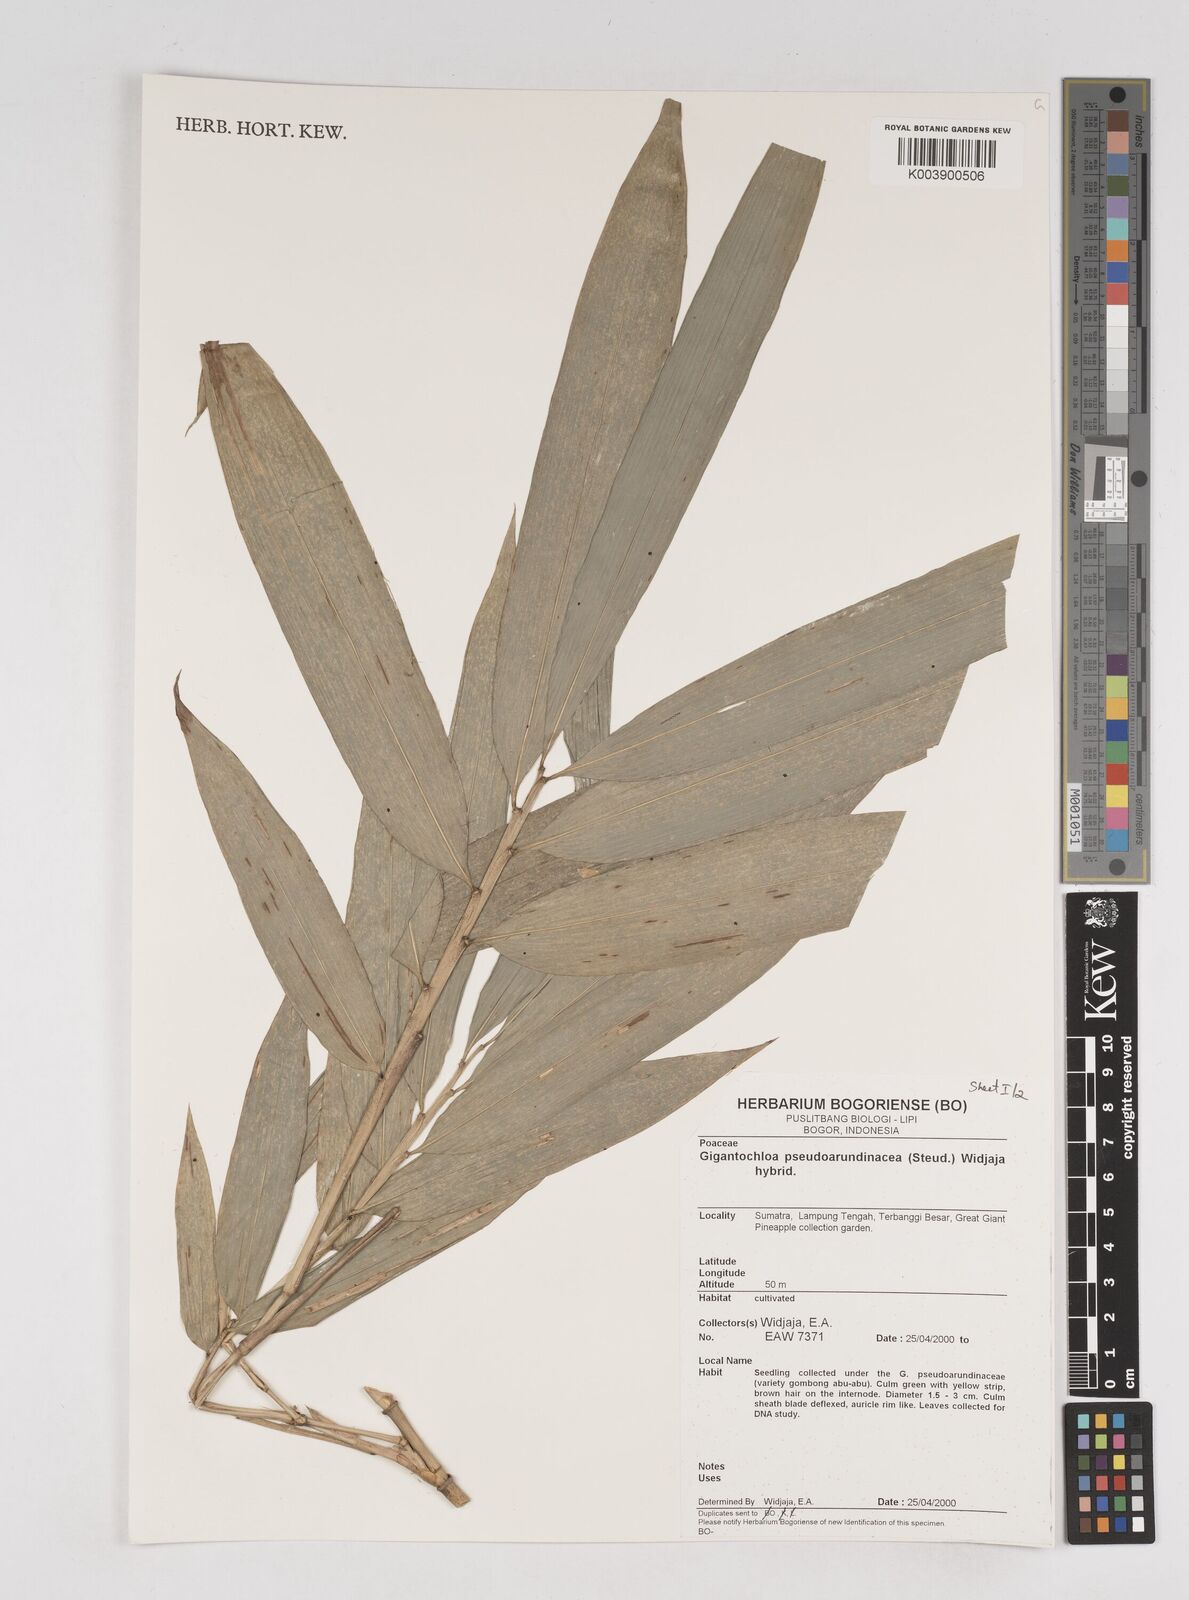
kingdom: Plantae
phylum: Tracheophyta
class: Liliopsida
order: Poales
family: Poaceae
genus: Gigantochloa
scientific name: Gigantochloa verticillata
